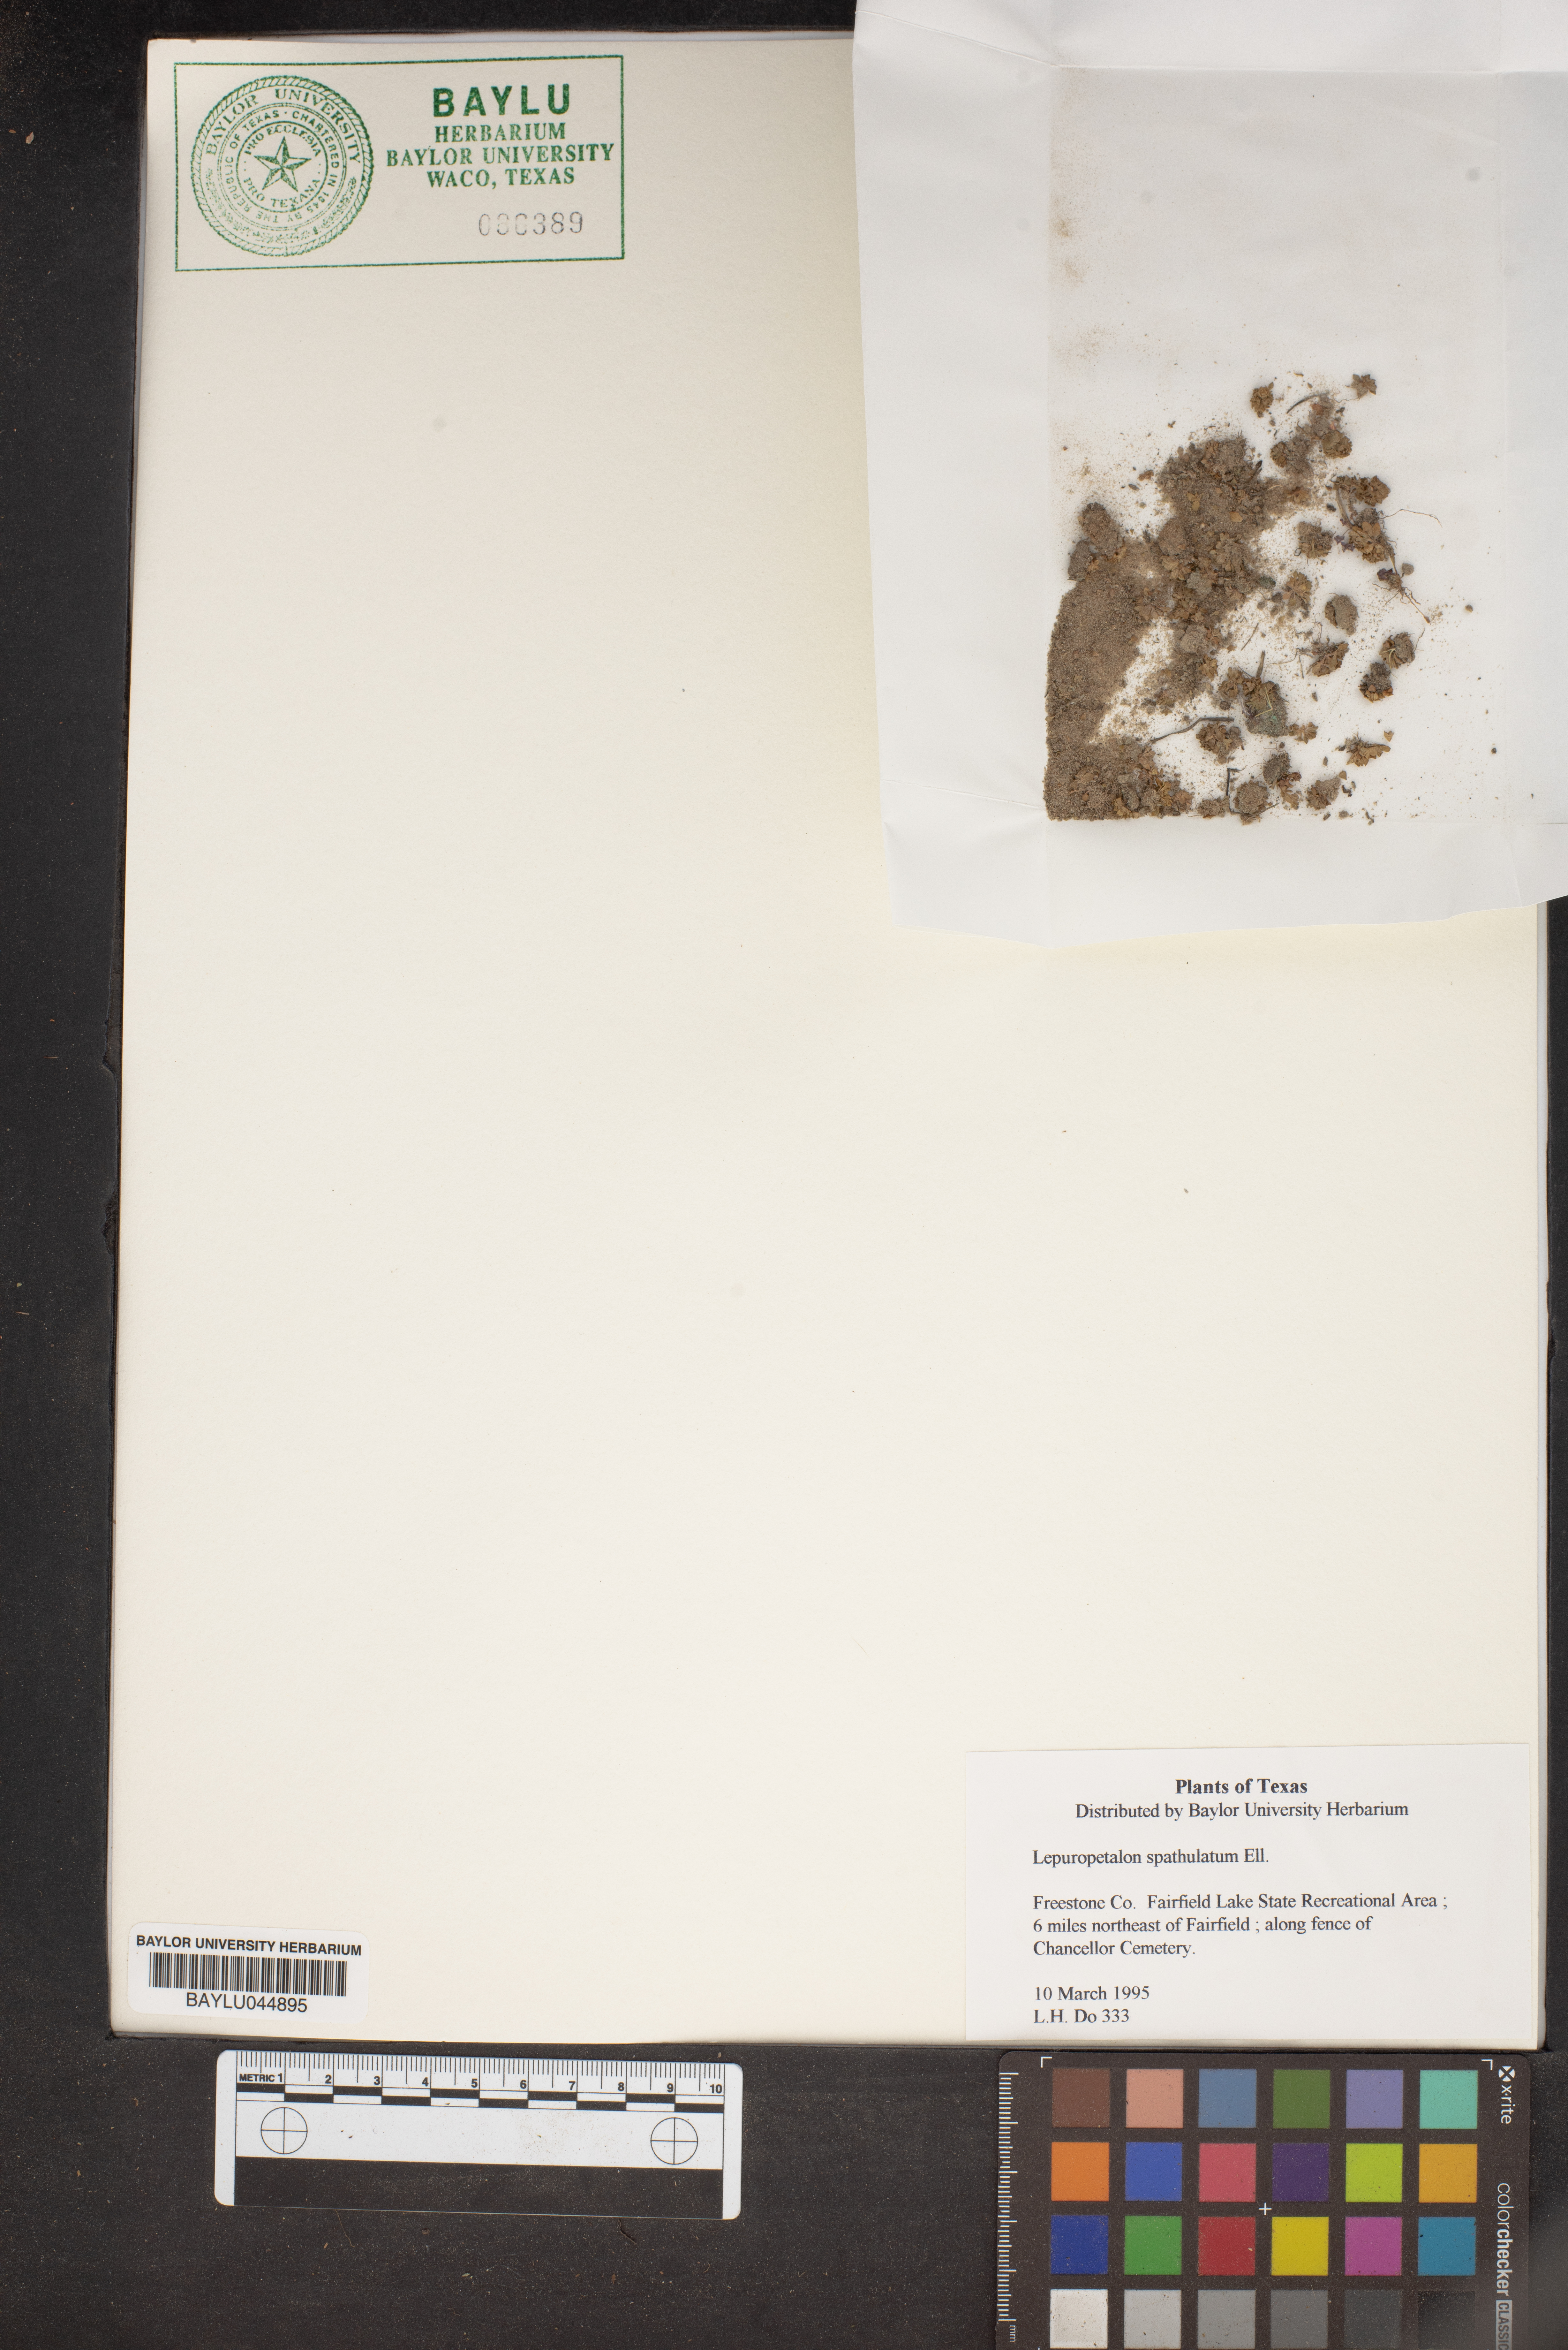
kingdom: Plantae
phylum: Tracheophyta
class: Magnoliopsida
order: Celastrales
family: Parnassiaceae
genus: Lepuropetalon
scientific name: Lepuropetalon spathulatum
